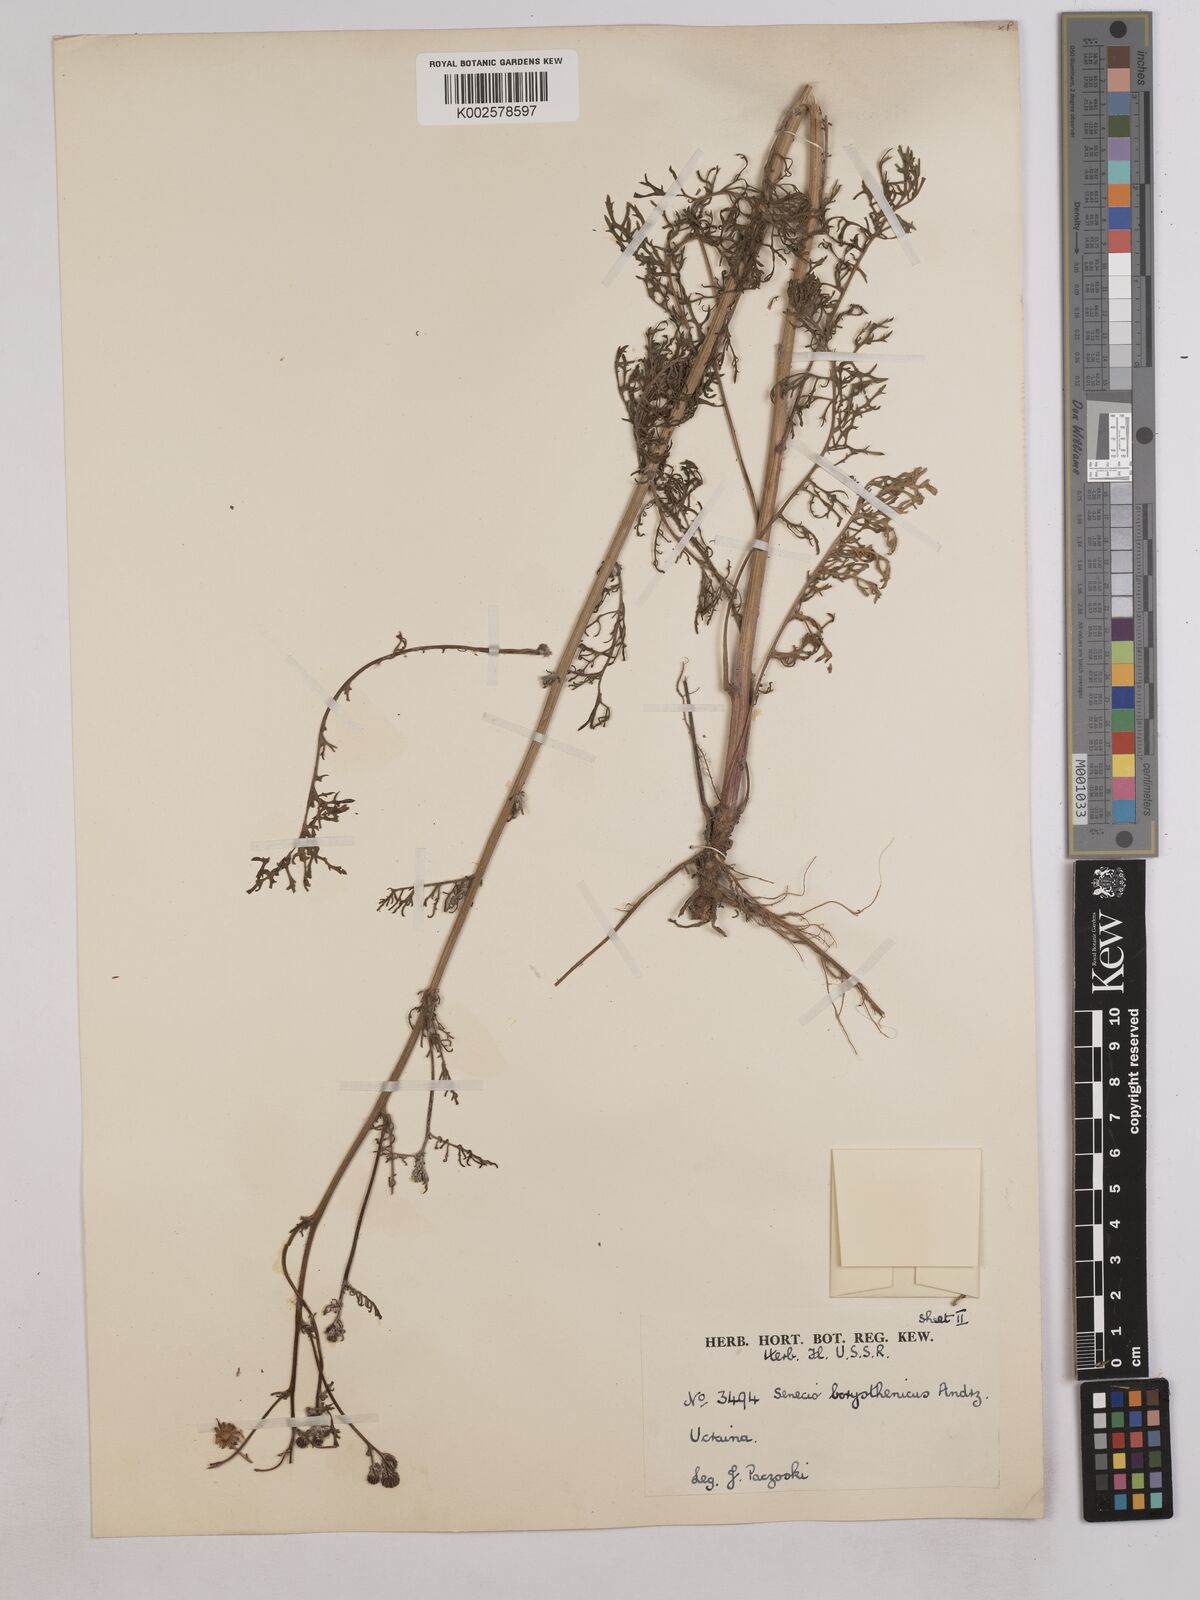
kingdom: Plantae
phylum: Tracheophyta
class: Magnoliopsida
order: Asterales
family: Asteraceae
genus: Jacobaea
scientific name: Jacobaea vulgaris
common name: Stinking willie
